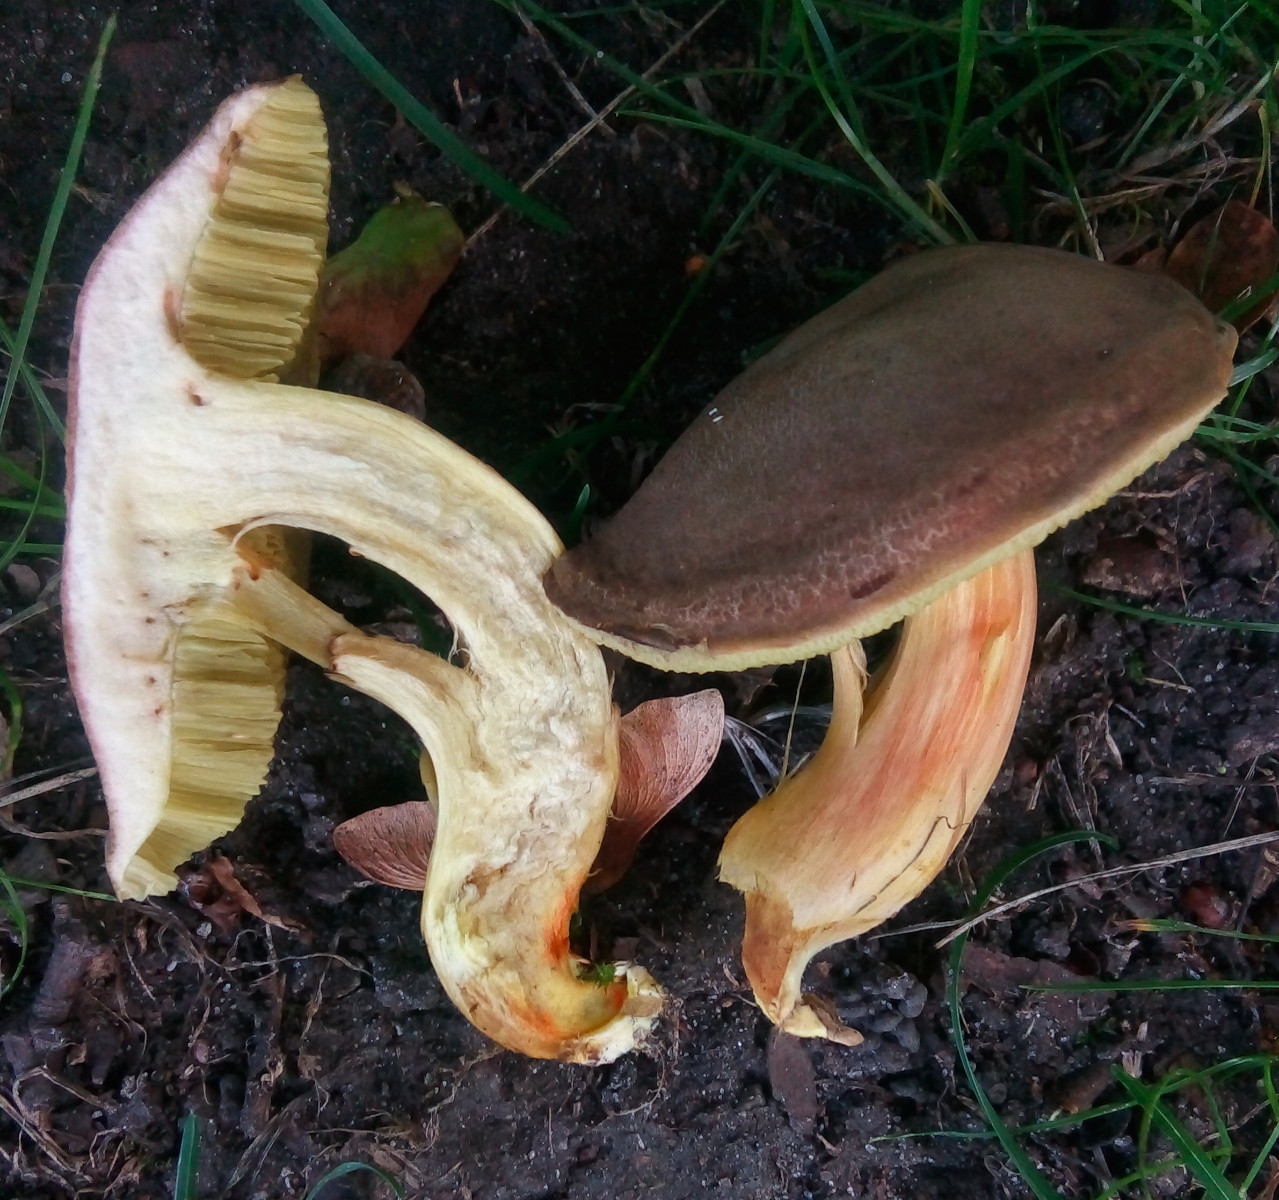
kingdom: Fungi
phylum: Basidiomycota
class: Agaricomycetes
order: Boletales
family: Boletaceae
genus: Hortiboletus
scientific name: Hortiboletus engelii
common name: fersken-rørhat
